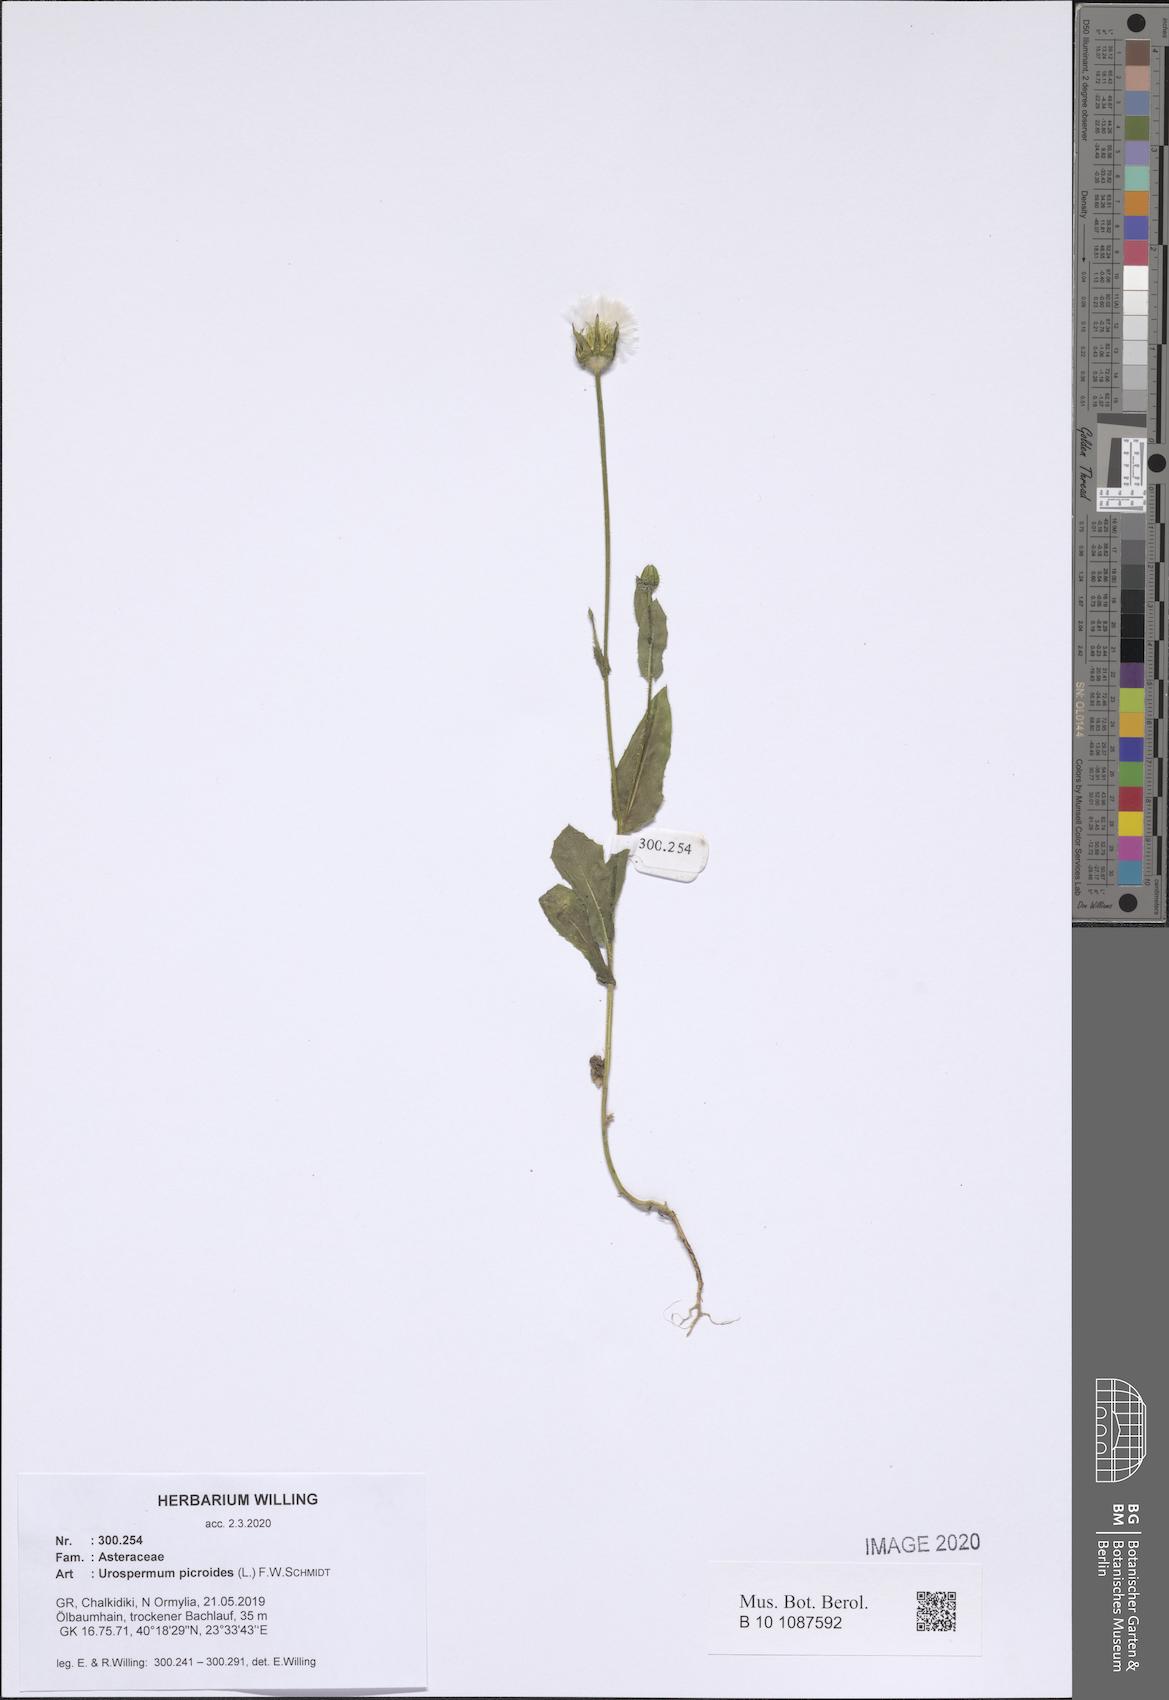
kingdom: Plantae
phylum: Tracheophyta
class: Magnoliopsida
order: Asterales
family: Asteraceae
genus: Urospermum
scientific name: Urospermum picroides
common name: False hawkbit
